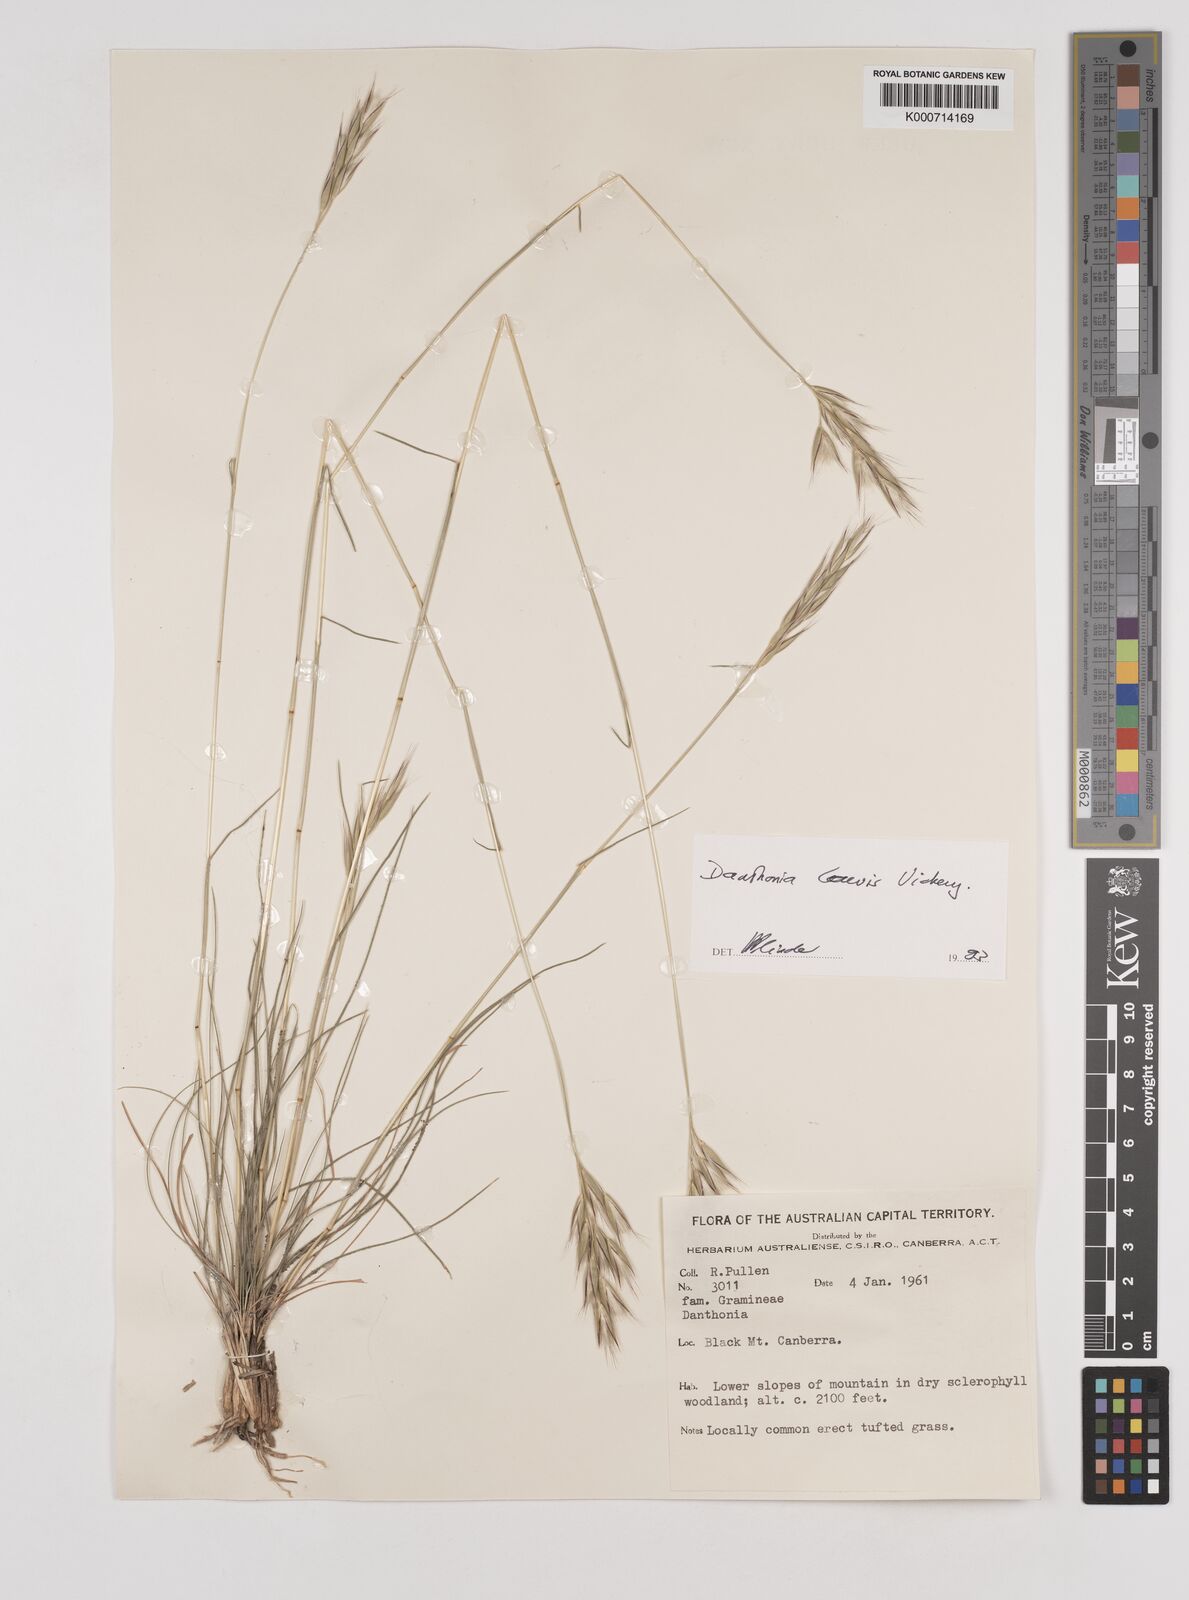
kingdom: Plantae
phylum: Tracheophyta
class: Liliopsida
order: Poales
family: Poaceae
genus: Rytidosperma
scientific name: Rytidosperma
